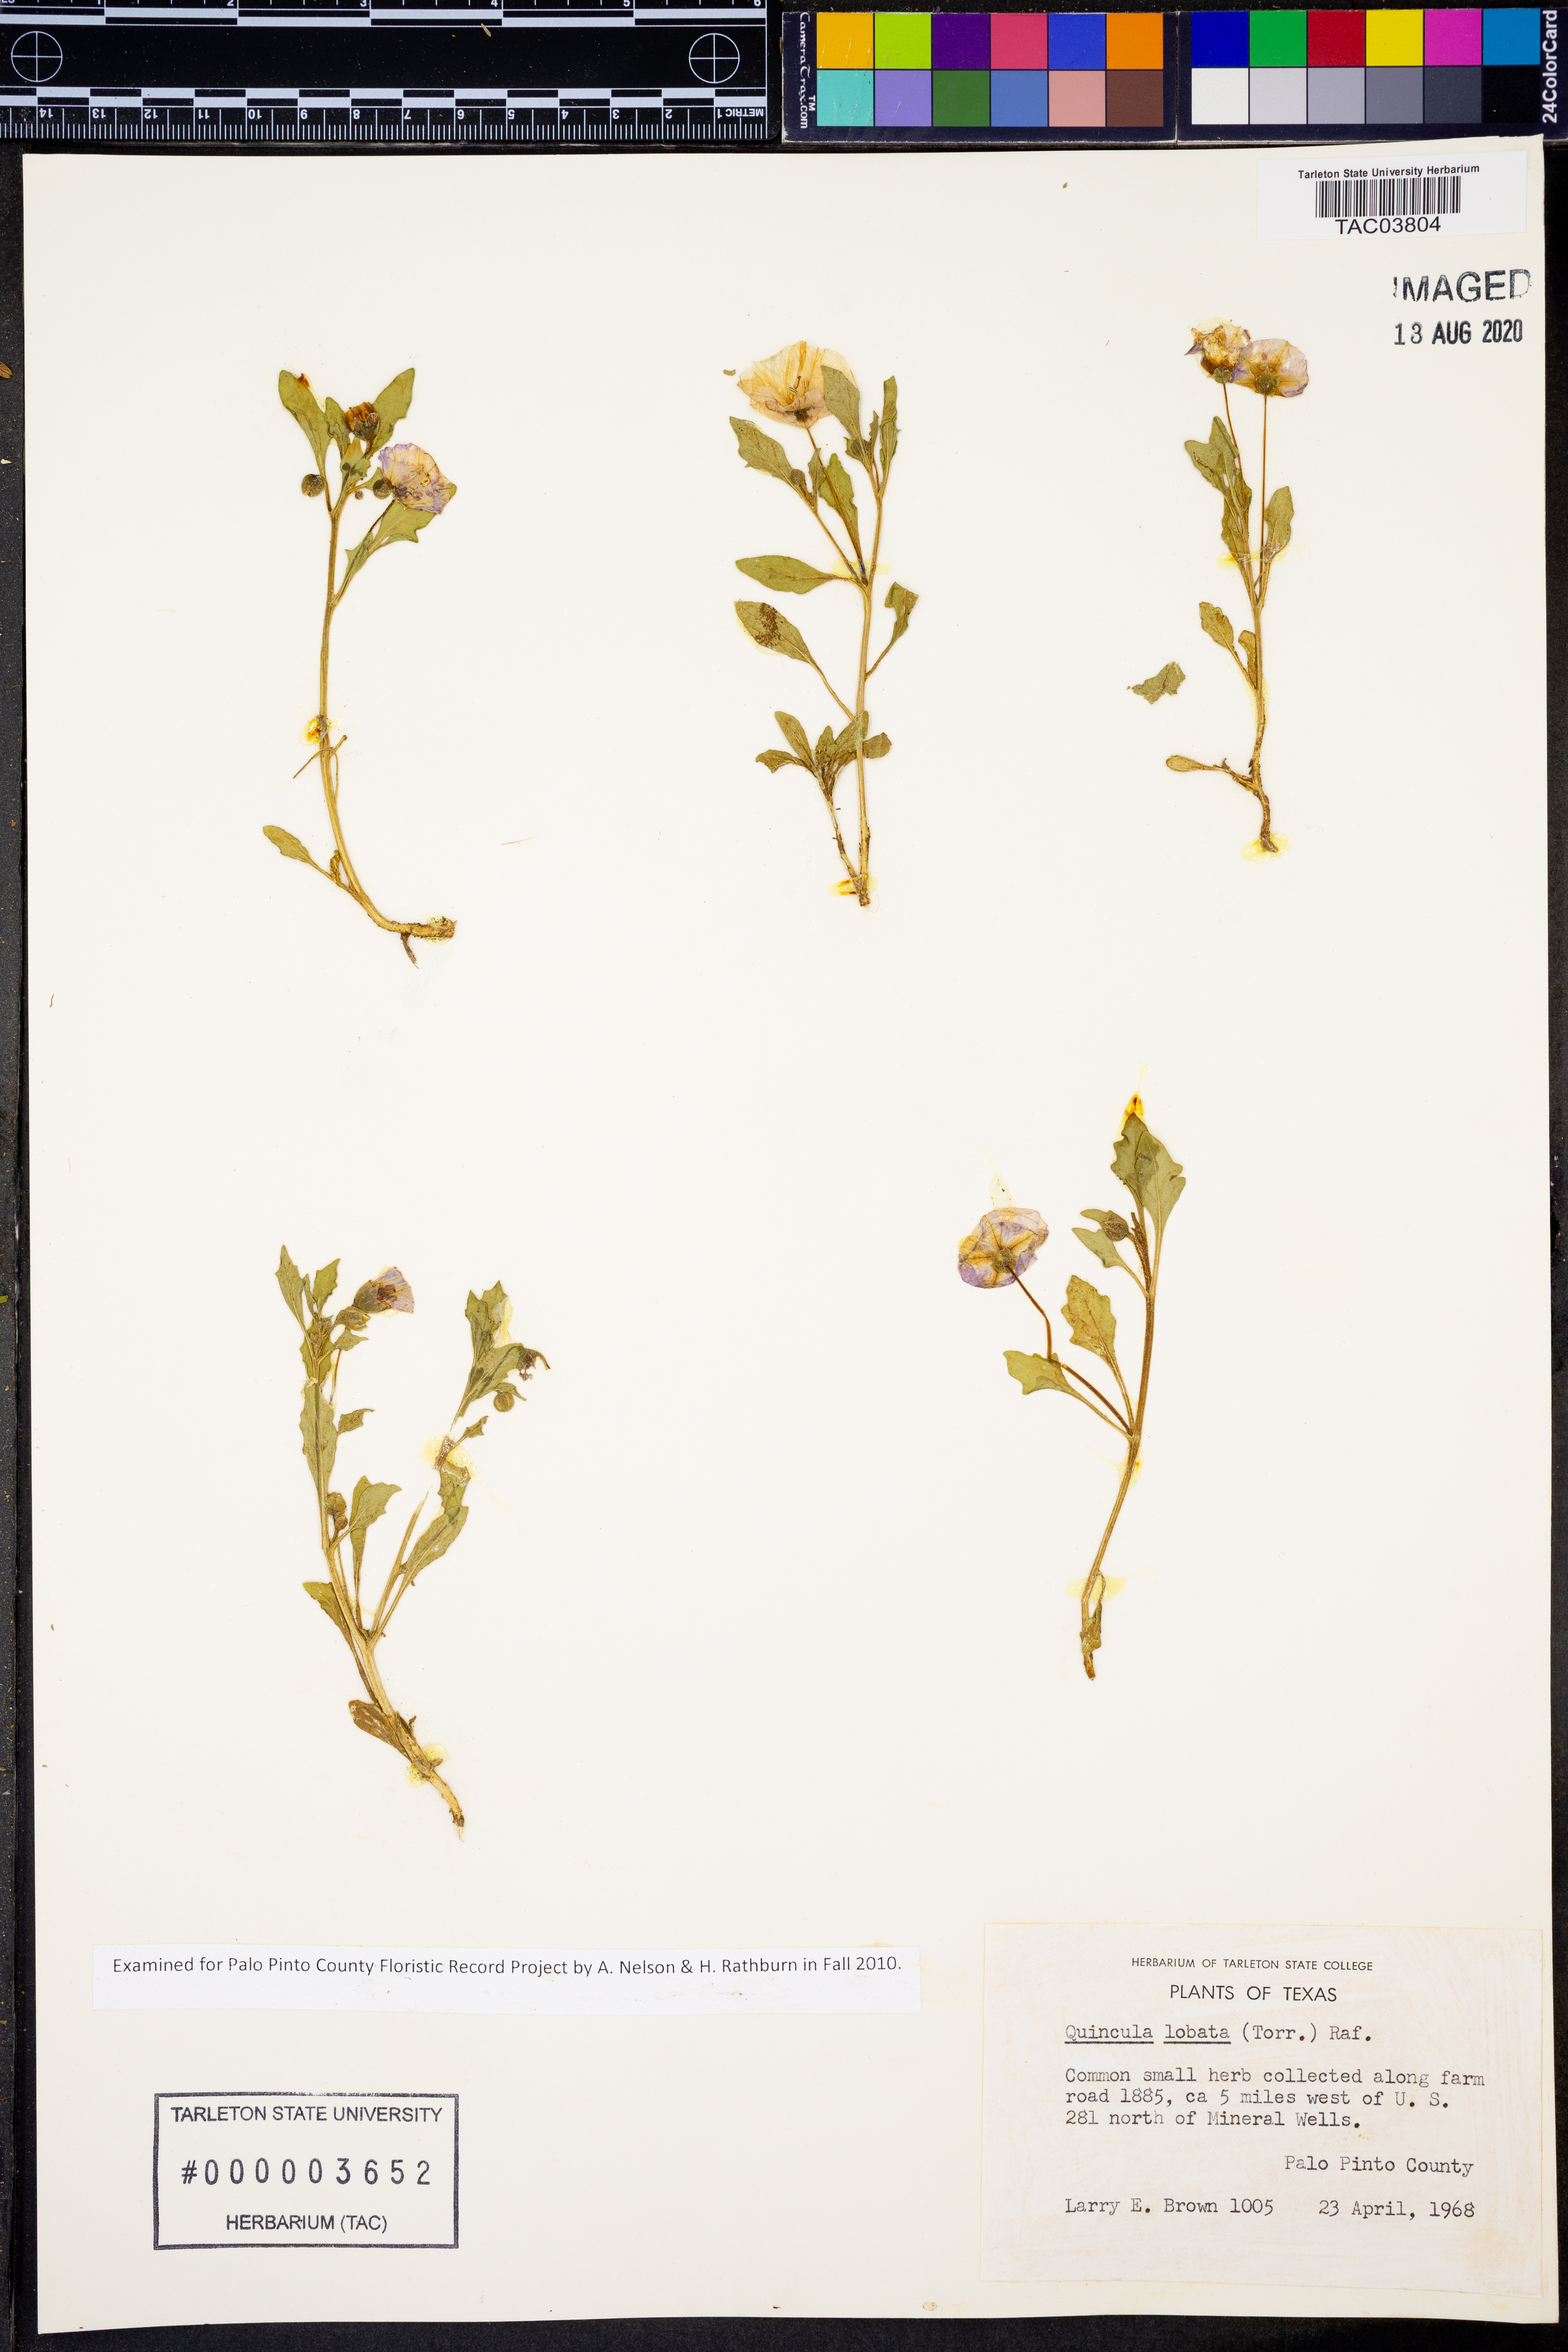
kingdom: Plantae
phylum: Tracheophyta
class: Magnoliopsida
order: Solanales
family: Solanaceae
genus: Quincula
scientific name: Quincula lobata
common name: Purple-ground-cherry
